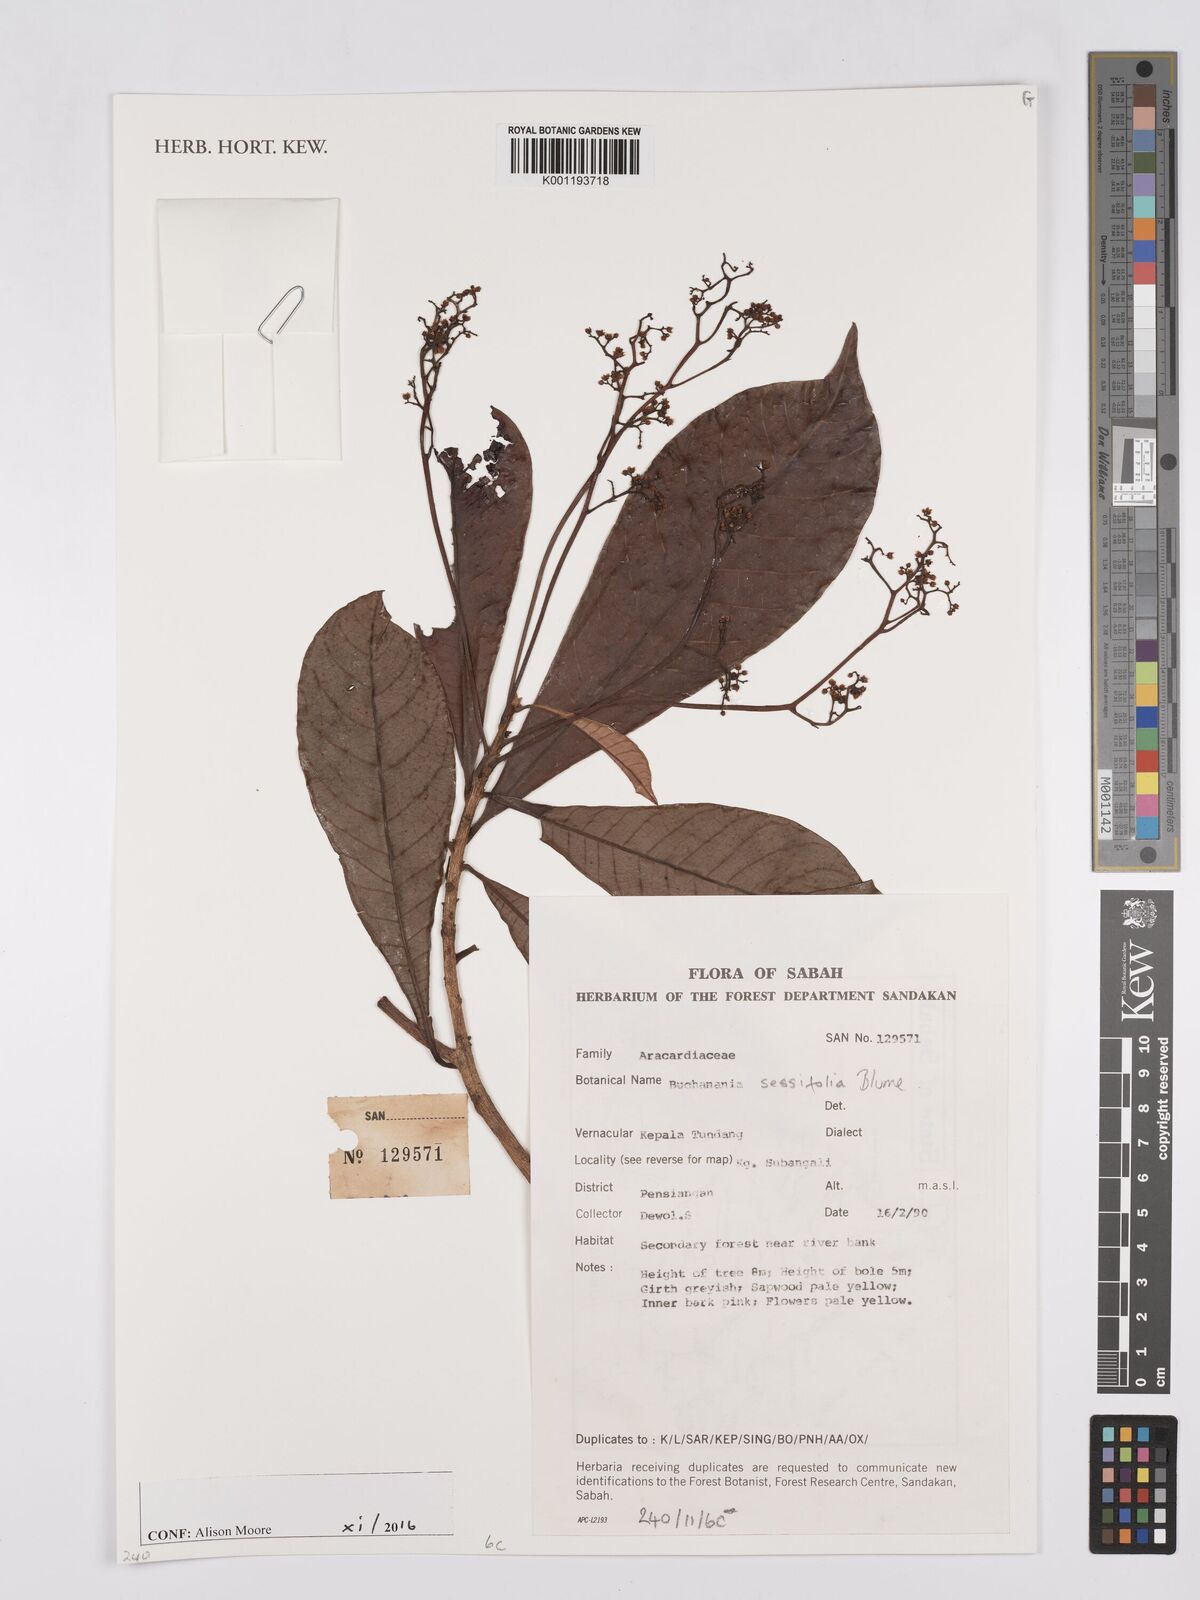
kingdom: Plantae
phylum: Tracheophyta
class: Magnoliopsida
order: Sapindales
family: Anacardiaceae
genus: Buchanania
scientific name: Buchanania sessifolia
